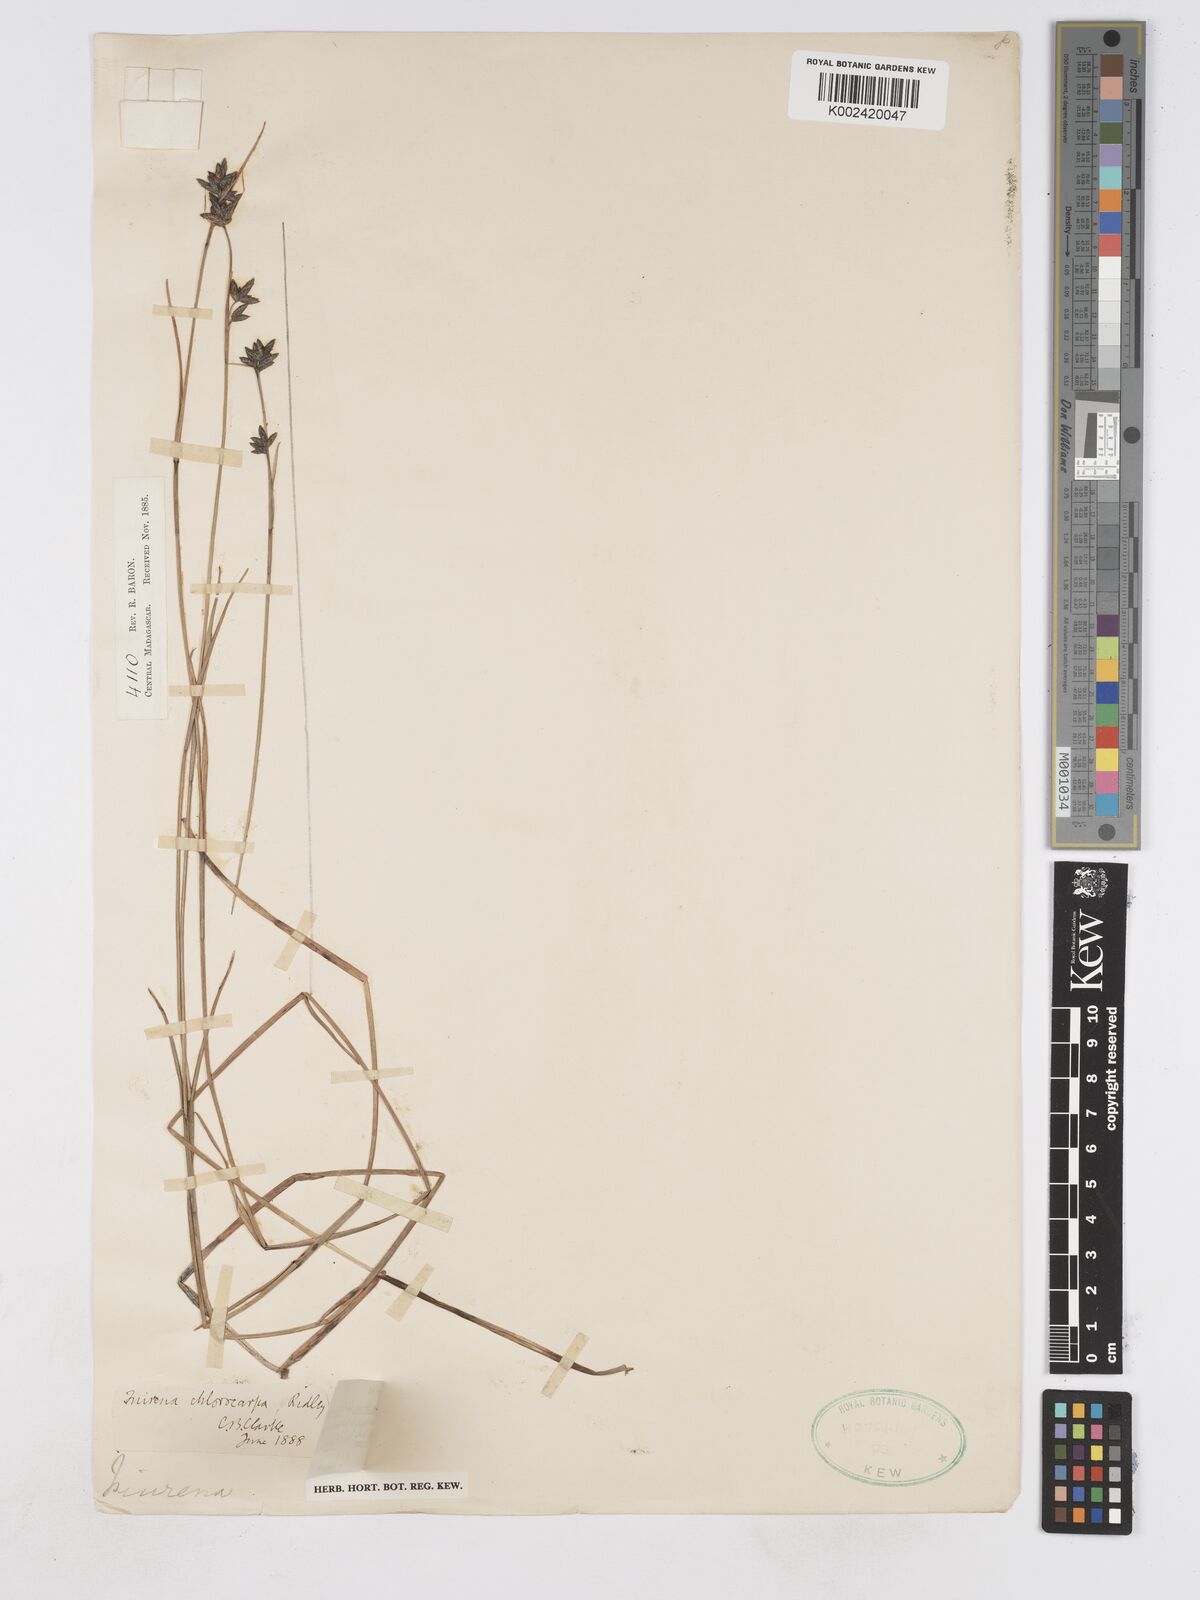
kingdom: Plantae
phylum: Tracheophyta
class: Liliopsida
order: Poales
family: Cyperaceae
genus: Fuirena
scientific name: Fuirena stricta
